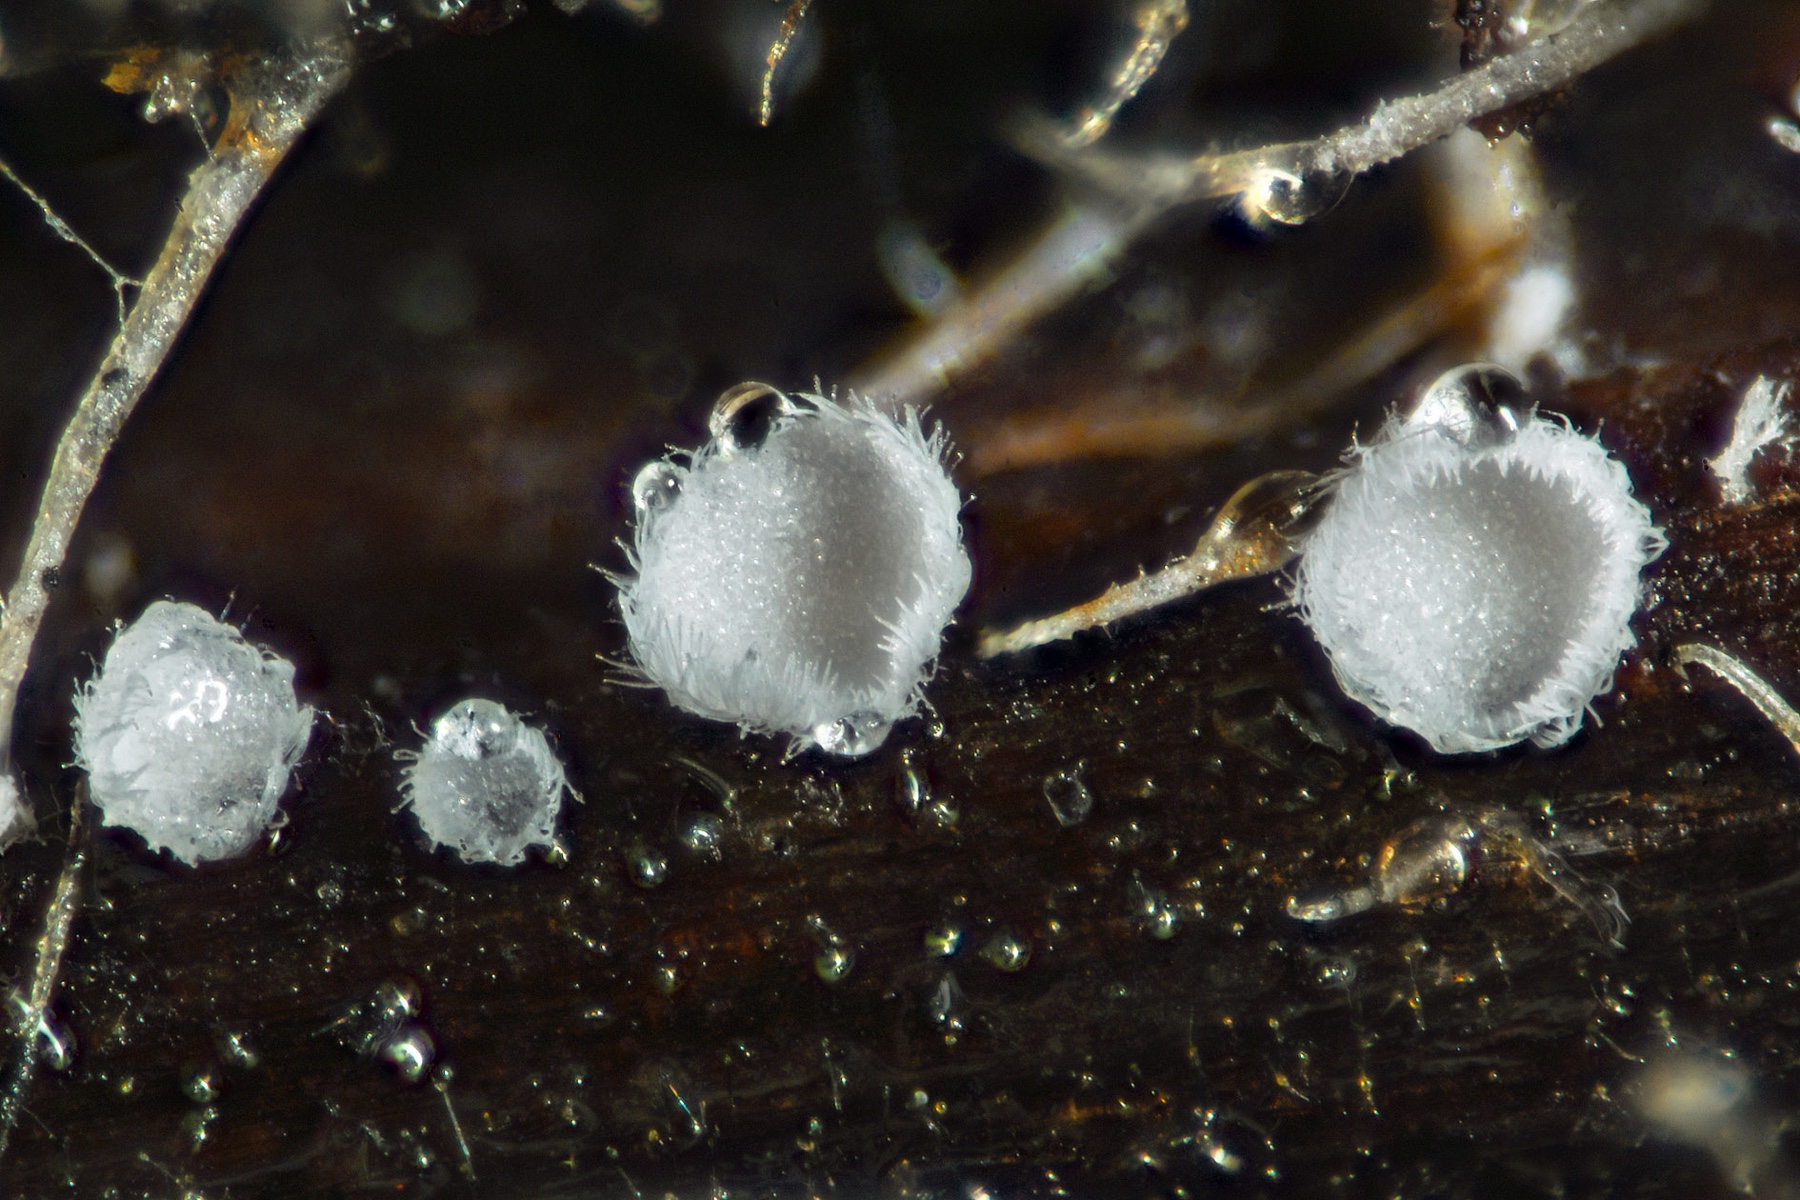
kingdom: Fungi
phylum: Basidiomycota
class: Agaricomycetes
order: Agaricales
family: Niaceae
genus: Flagelloscypha
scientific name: Flagelloscypha
